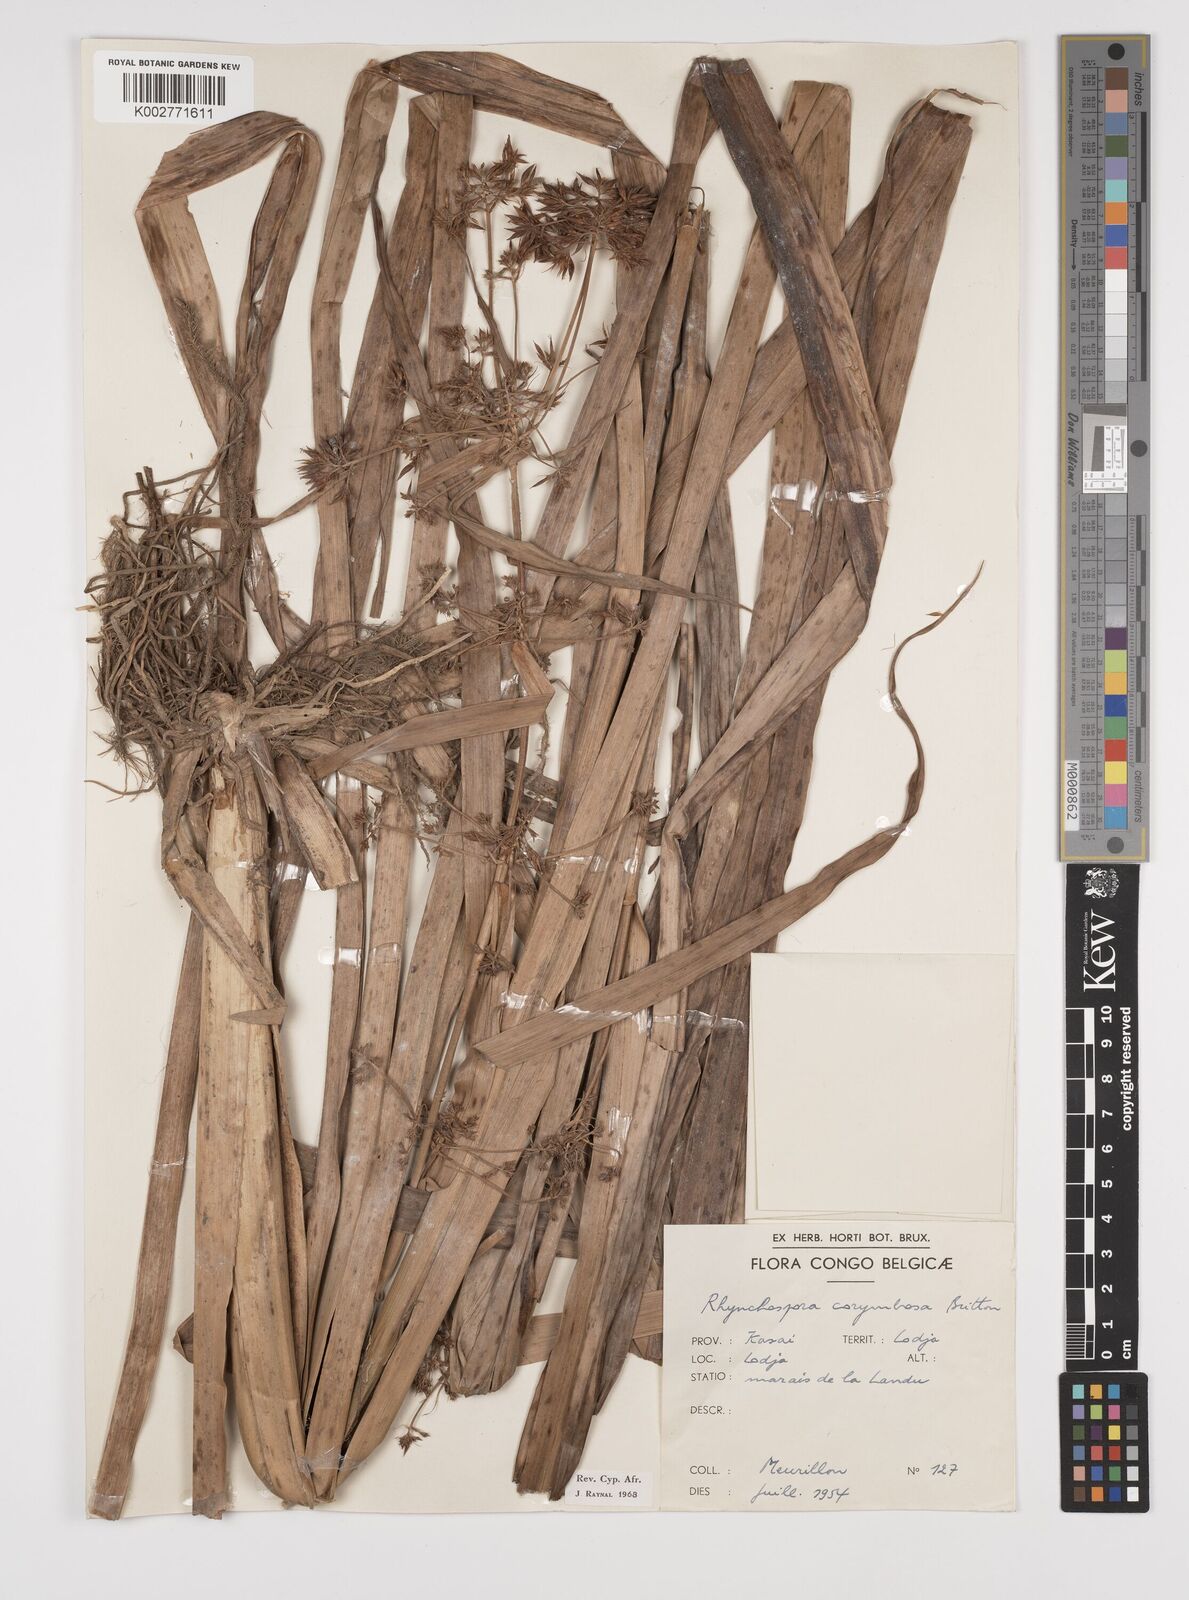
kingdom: Plantae
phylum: Tracheophyta
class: Liliopsida
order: Poales
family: Cyperaceae
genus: Rhynchospora
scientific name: Rhynchospora corymbosa
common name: Golden beak sedge
